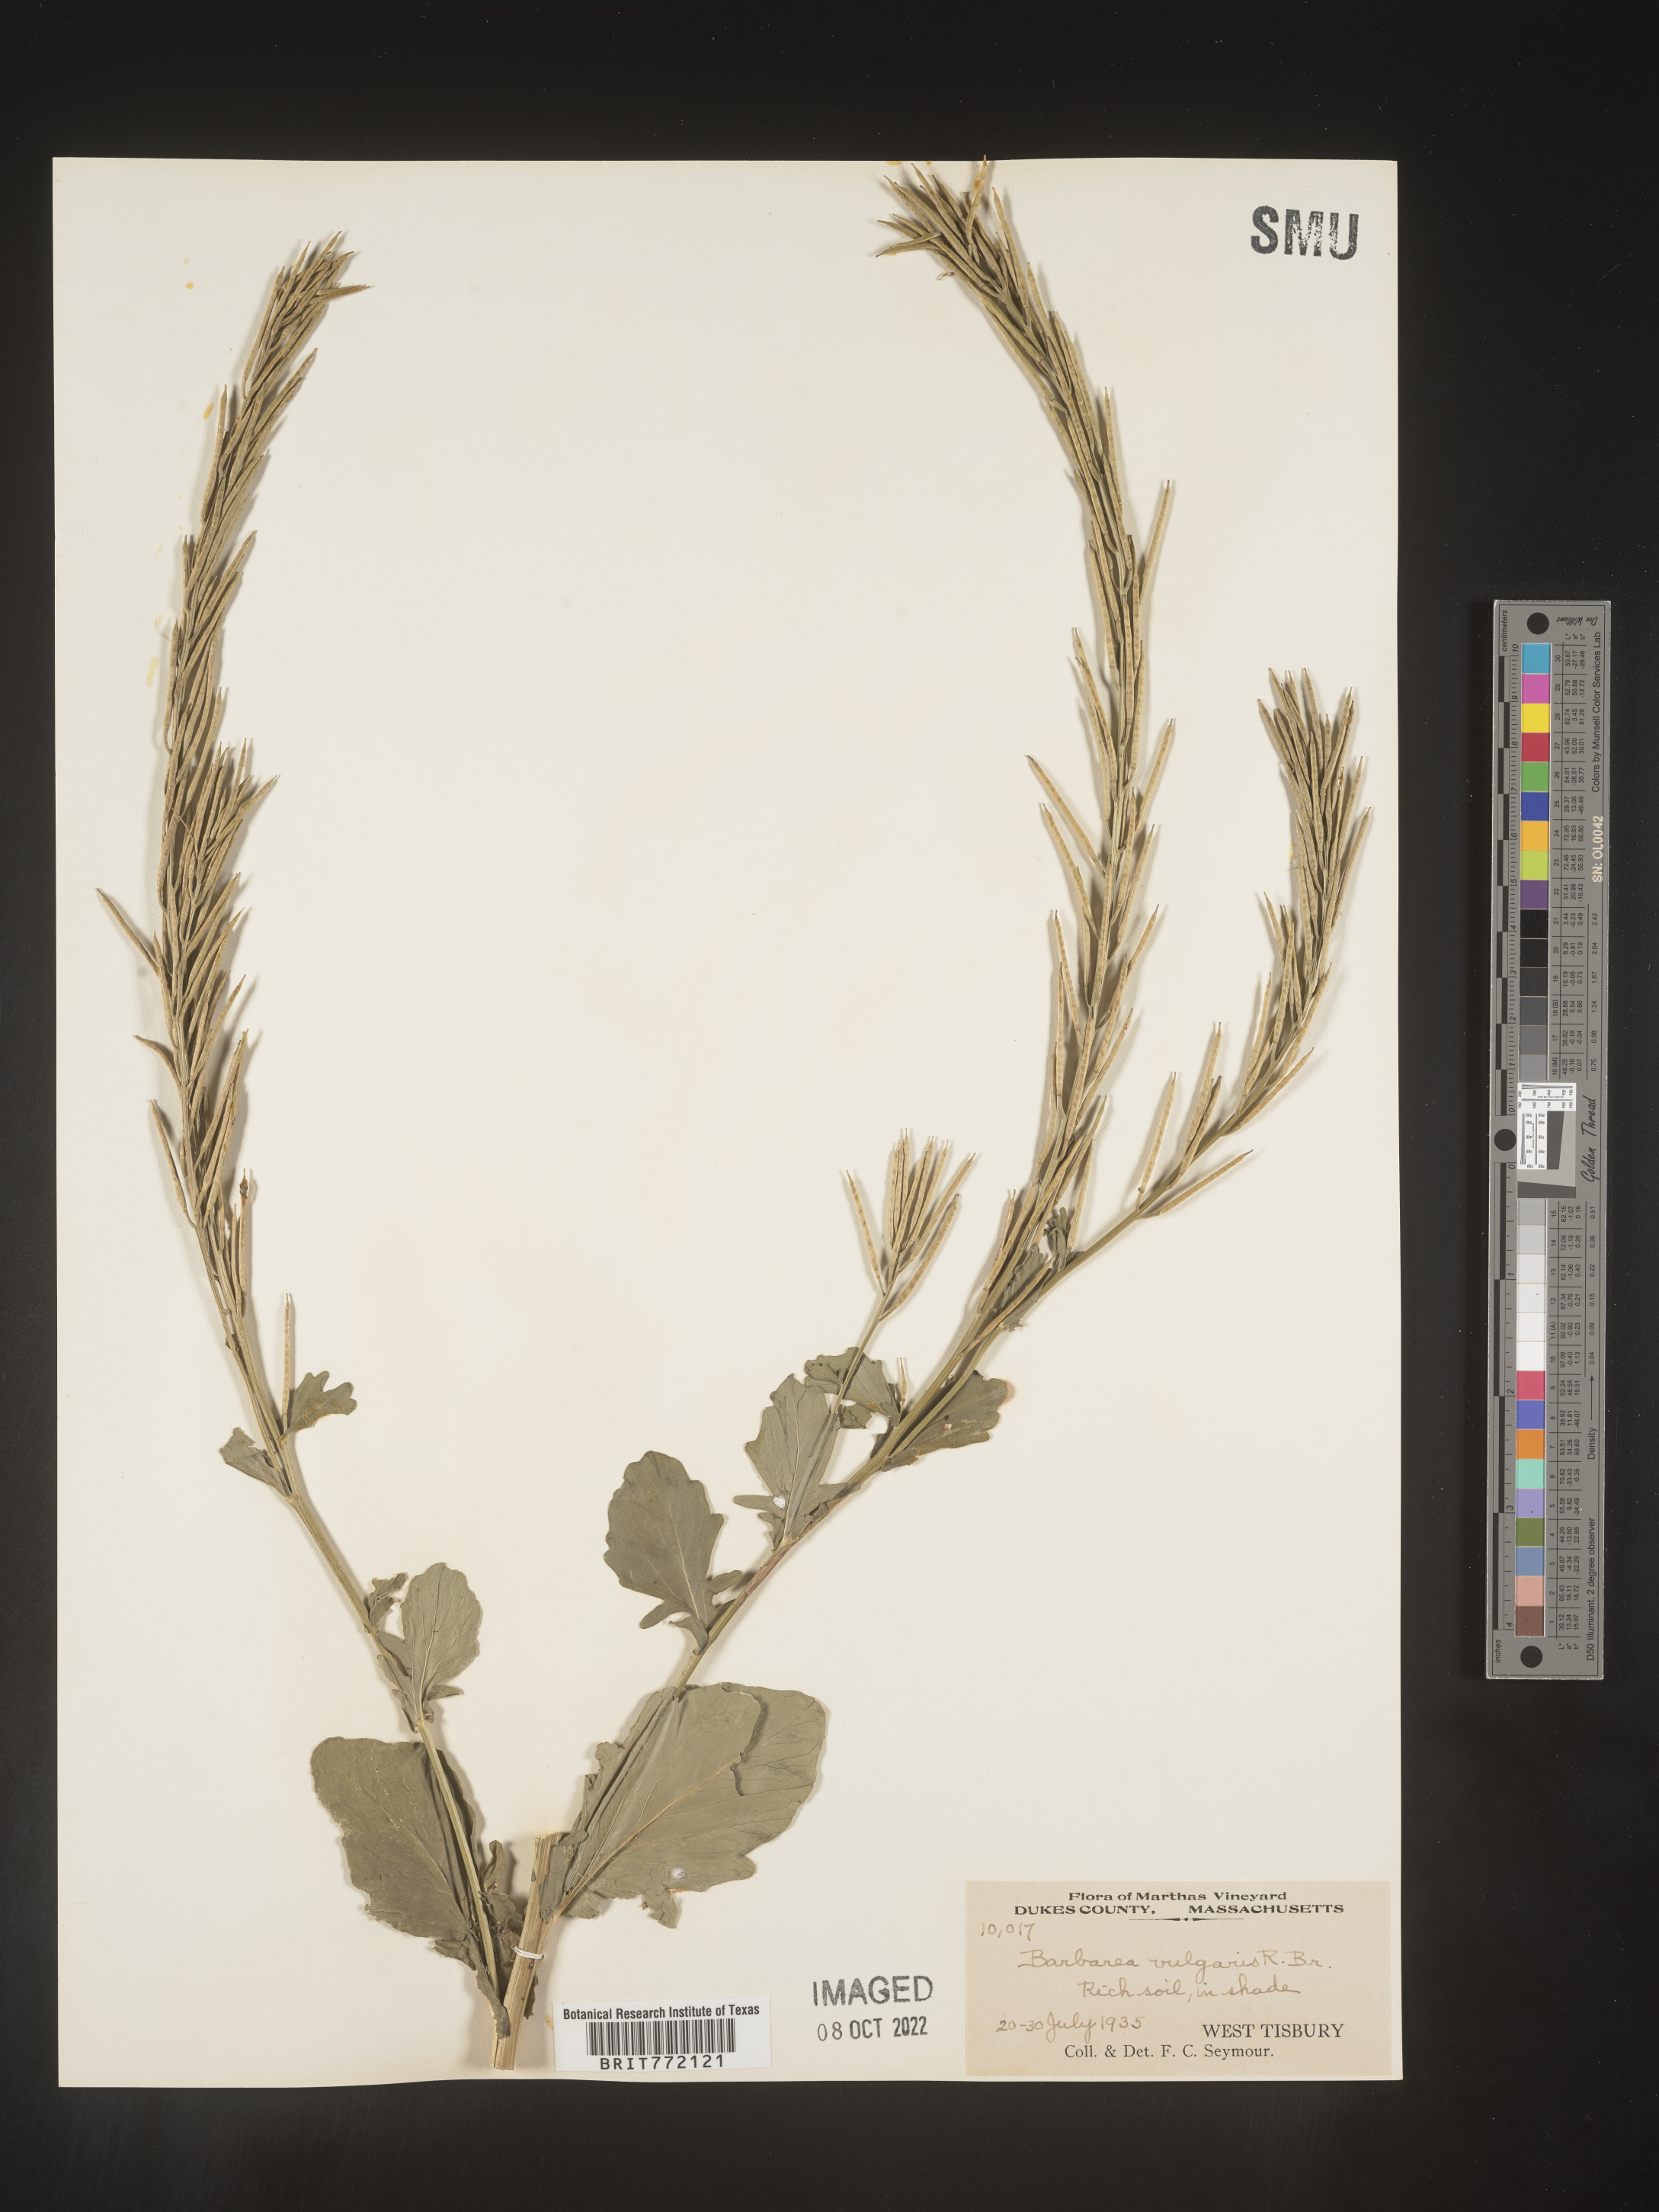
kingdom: Plantae
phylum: Tracheophyta
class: Magnoliopsida
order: Brassicales
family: Brassicaceae
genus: Barbarea
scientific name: Barbarea vulgaris
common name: Cressy-greens
